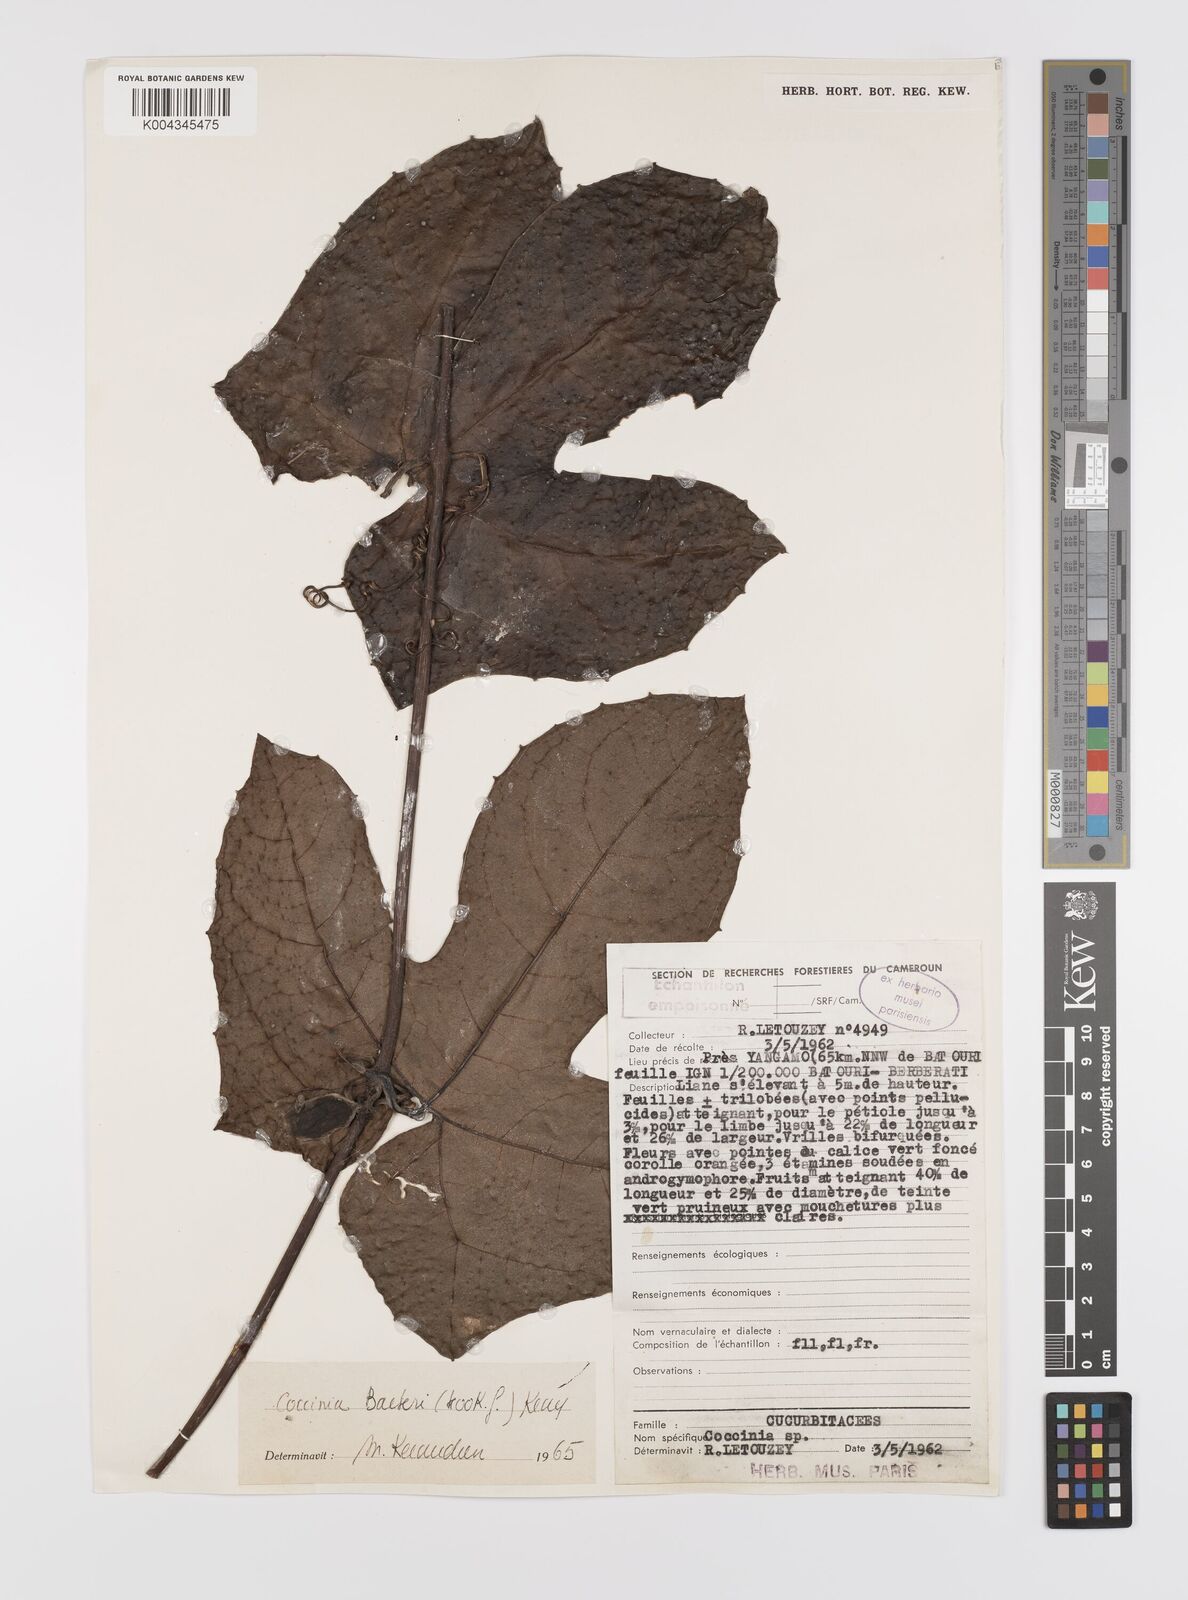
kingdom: Plantae
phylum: Tracheophyta
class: Magnoliopsida
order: Cucurbitales
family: Cucurbitaceae
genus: Coccinia
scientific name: Coccinia barteri
